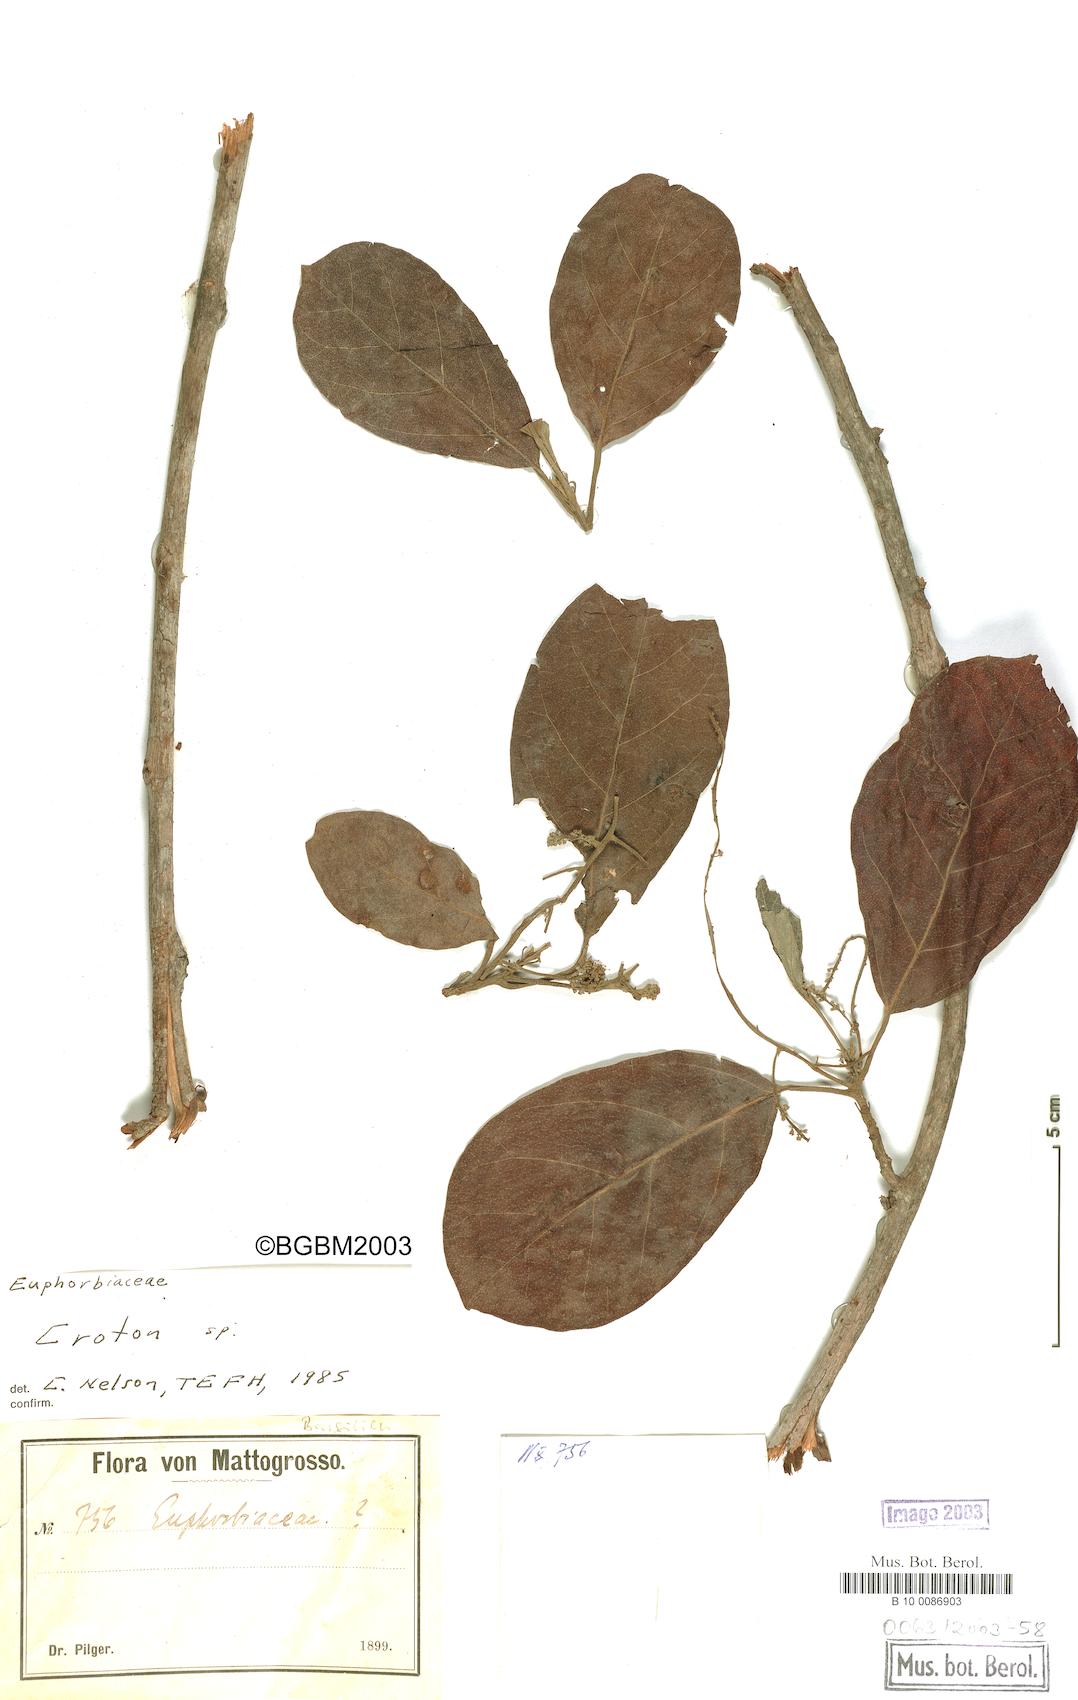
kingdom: Plantae
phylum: Tracheophyta
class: Magnoliopsida
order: Malpighiales
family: Euphorbiaceae
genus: Croton
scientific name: Croton
